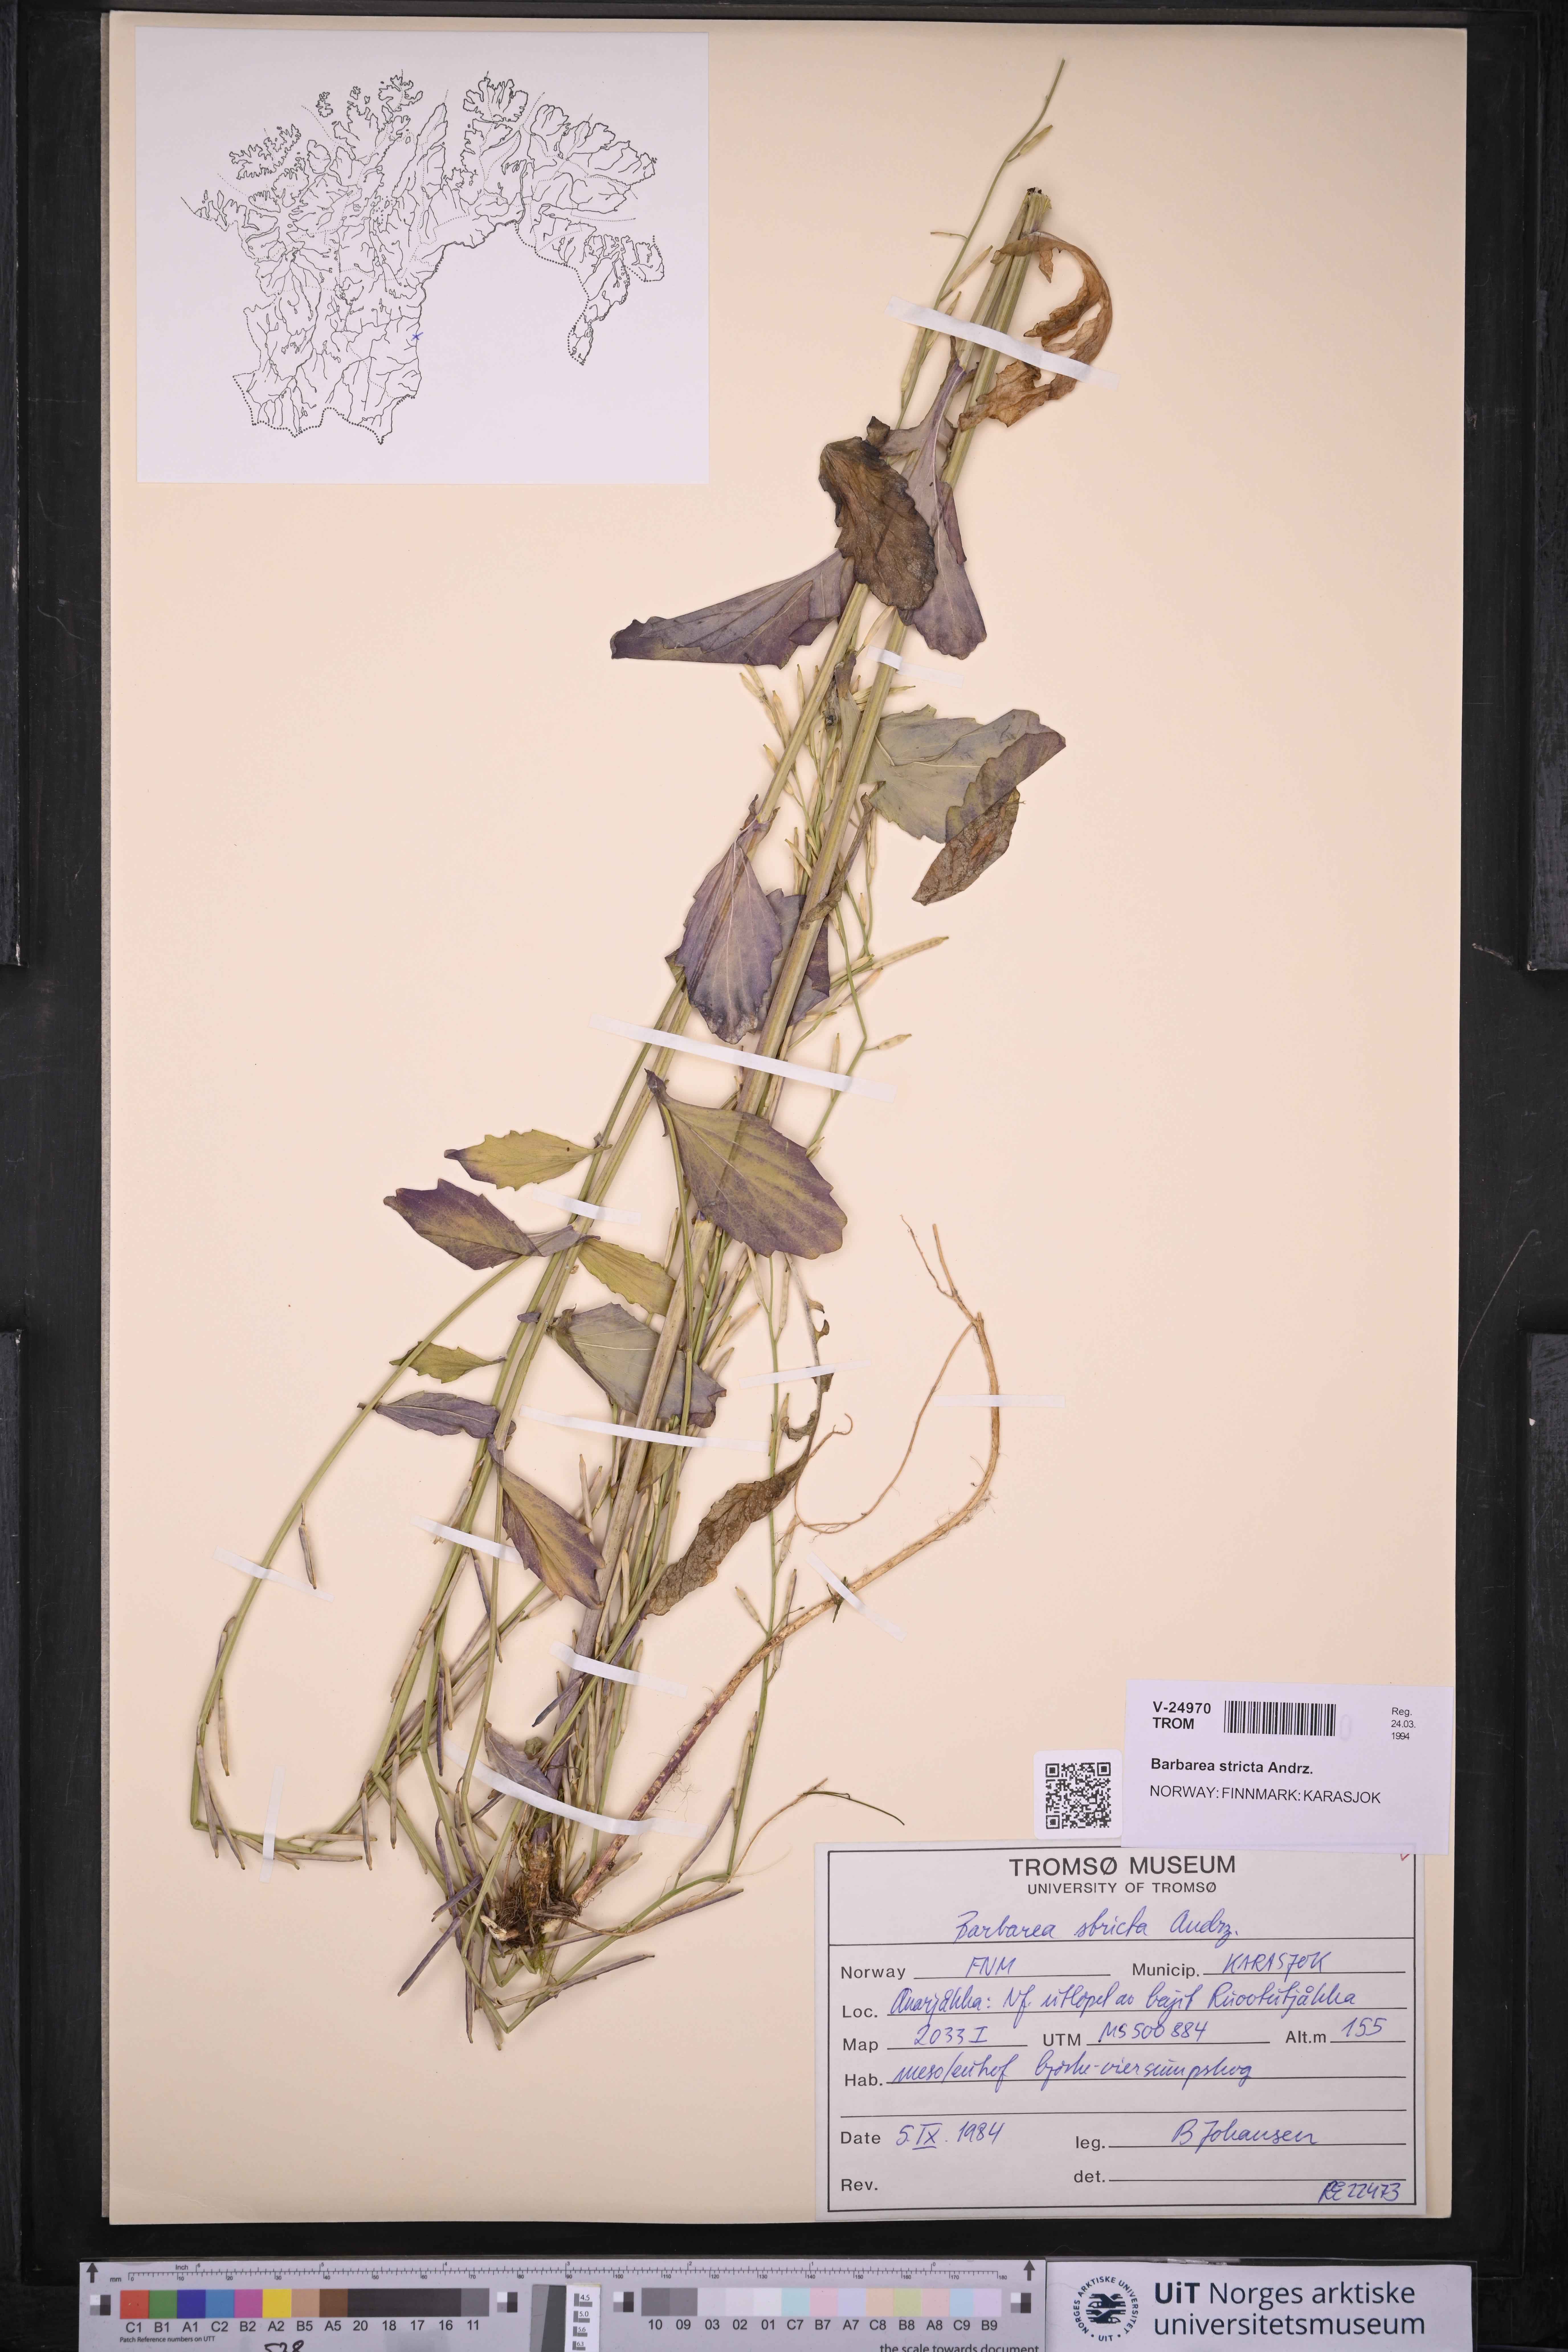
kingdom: Plantae
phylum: Tracheophyta
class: Magnoliopsida
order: Brassicales
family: Brassicaceae
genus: Barbarea
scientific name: Barbarea stricta
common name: Small-flowered winter-cress
